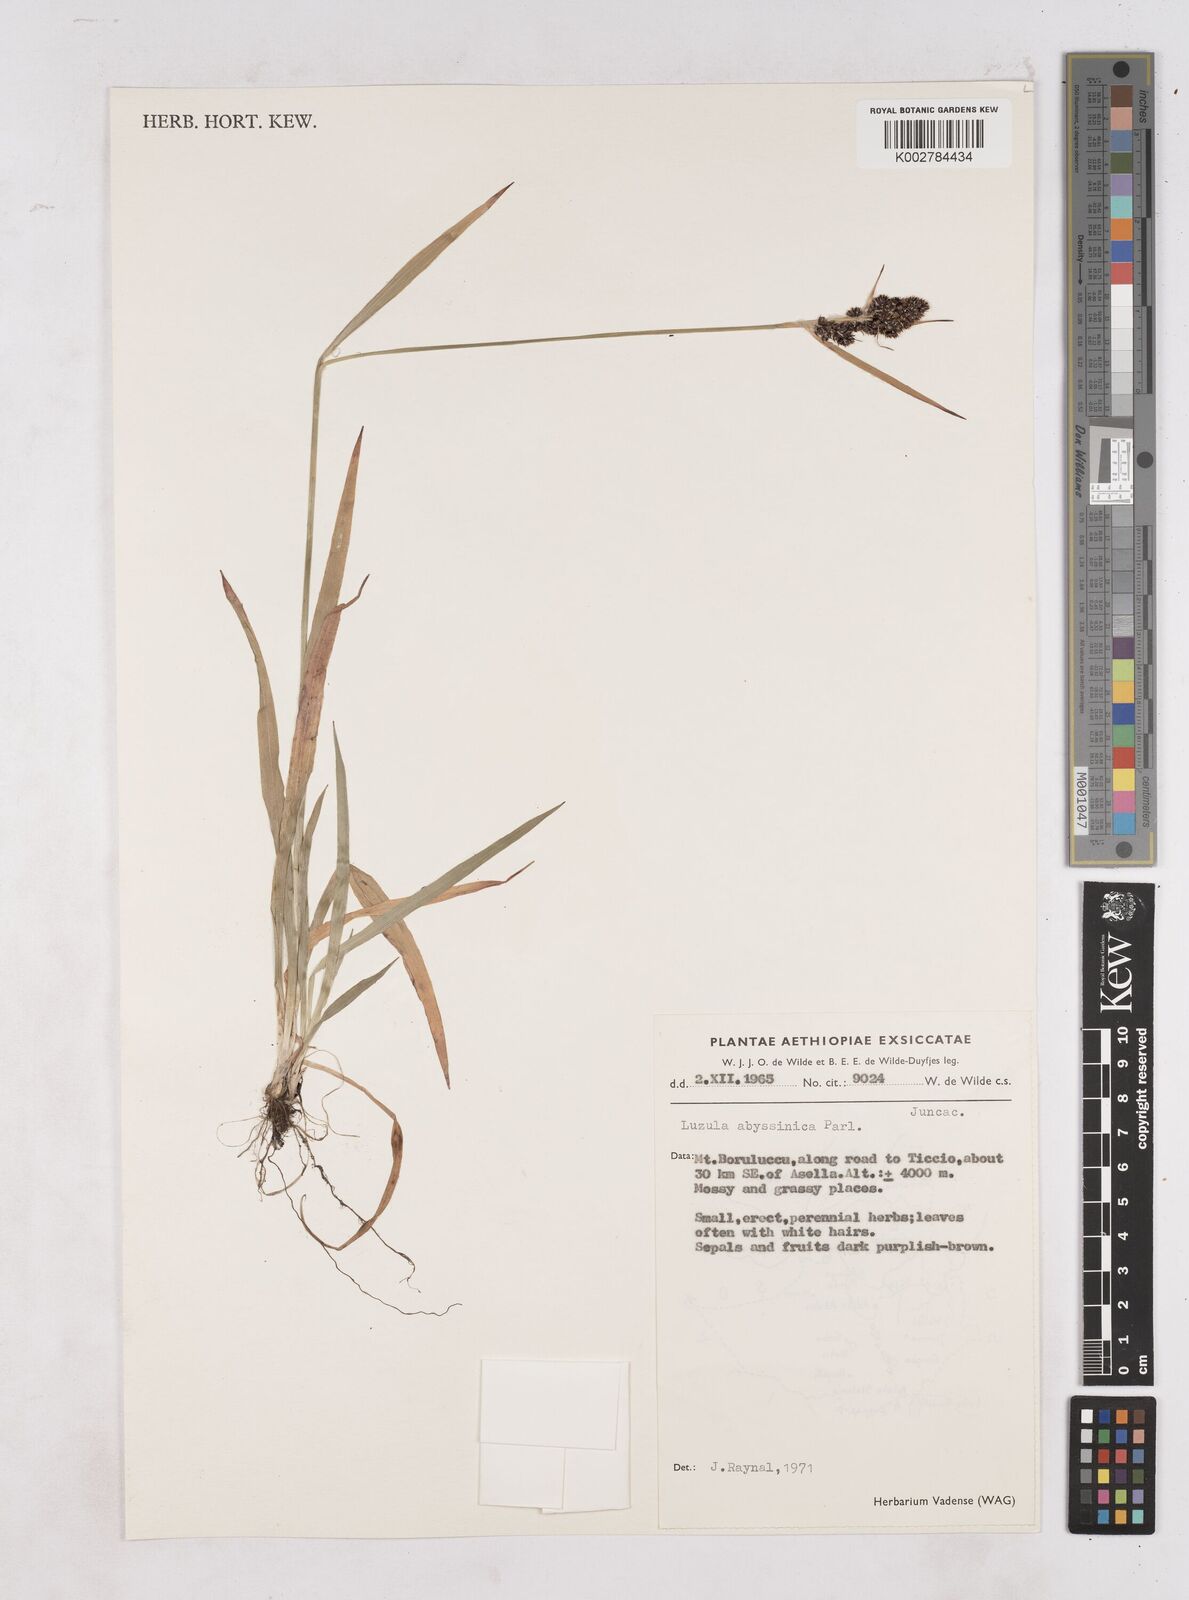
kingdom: Plantae
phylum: Tracheophyta
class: Liliopsida
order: Poales
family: Juncaceae
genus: Luzula
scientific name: Luzula abyssinica
